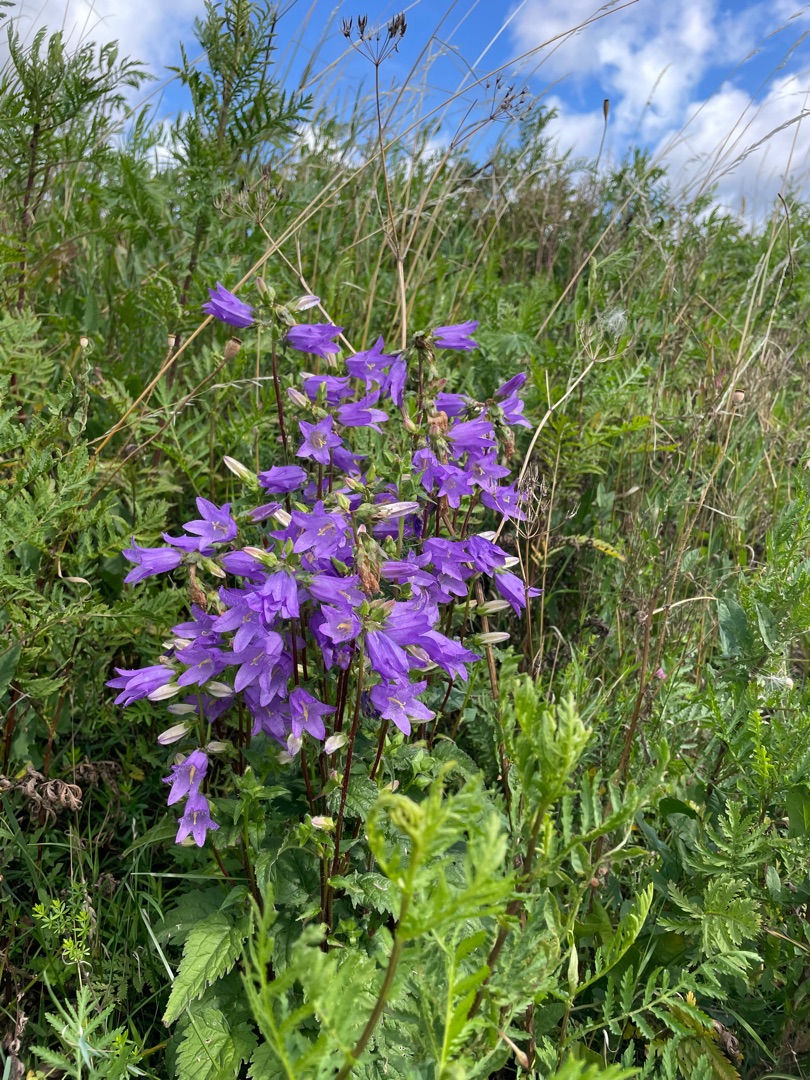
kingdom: Plantae
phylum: Tracheophyta
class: Magnoliopsida
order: Asterales
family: Campanulaceae
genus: Campanula
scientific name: Campanula trachelium
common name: Nælde-klokke
